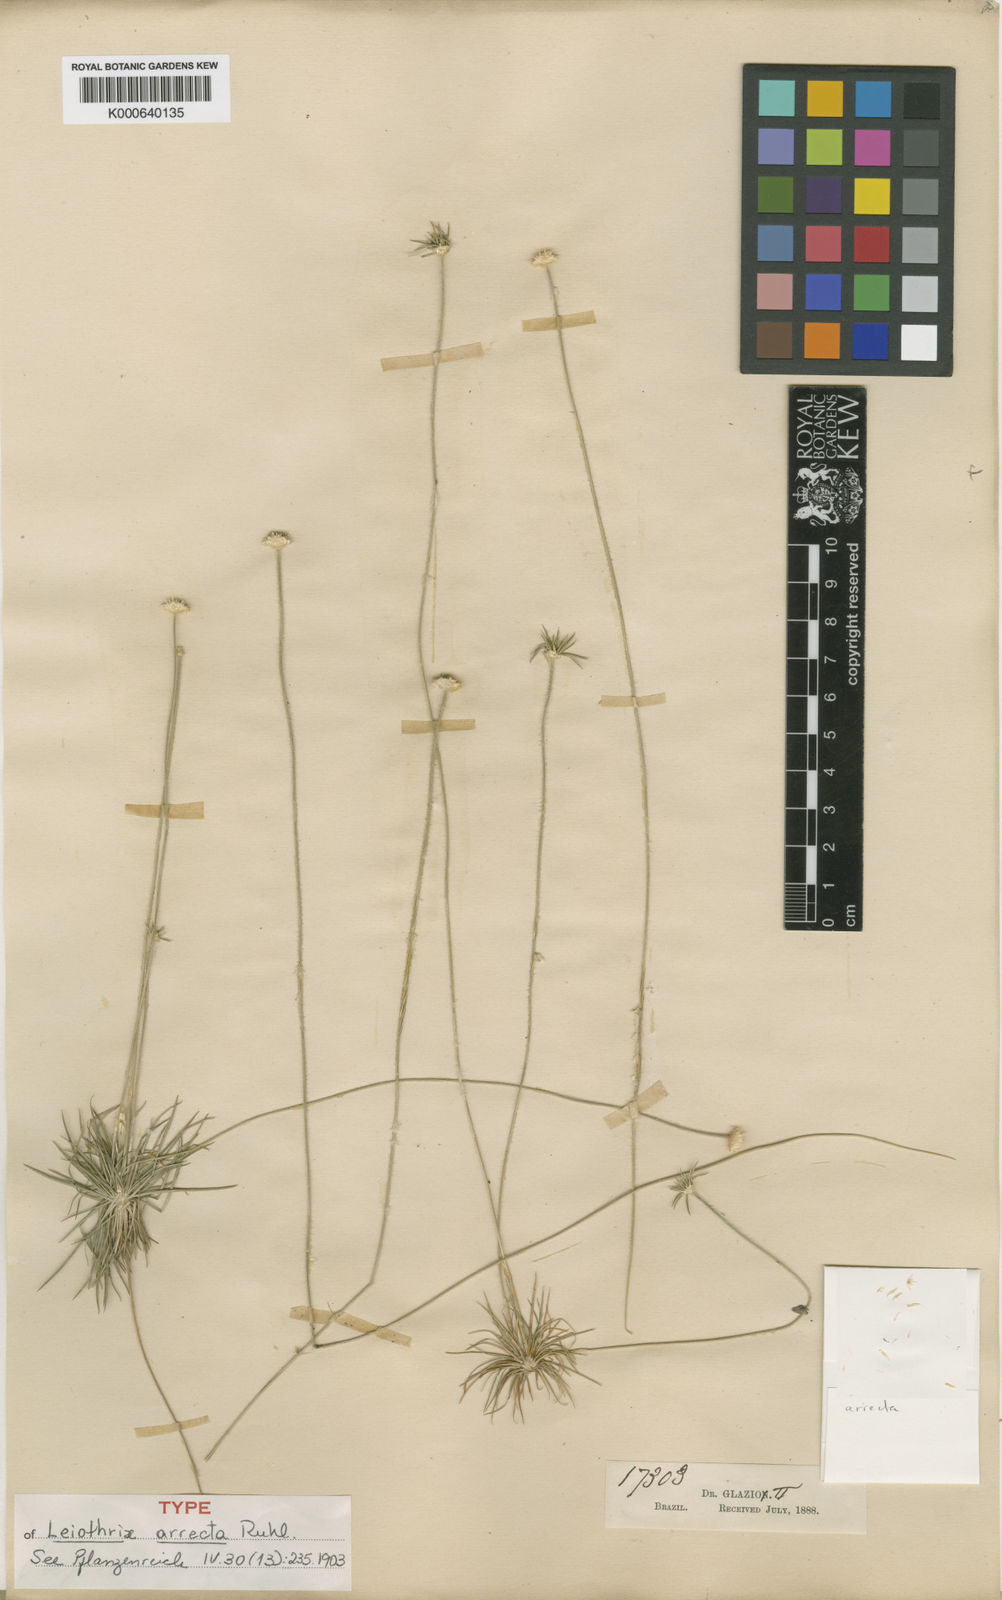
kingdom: Plantae
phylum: Tracheophyta
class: Liliopsida
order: Poales
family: Eriocaulaceae
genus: Leiothrix
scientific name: Leiothrix arrecta
